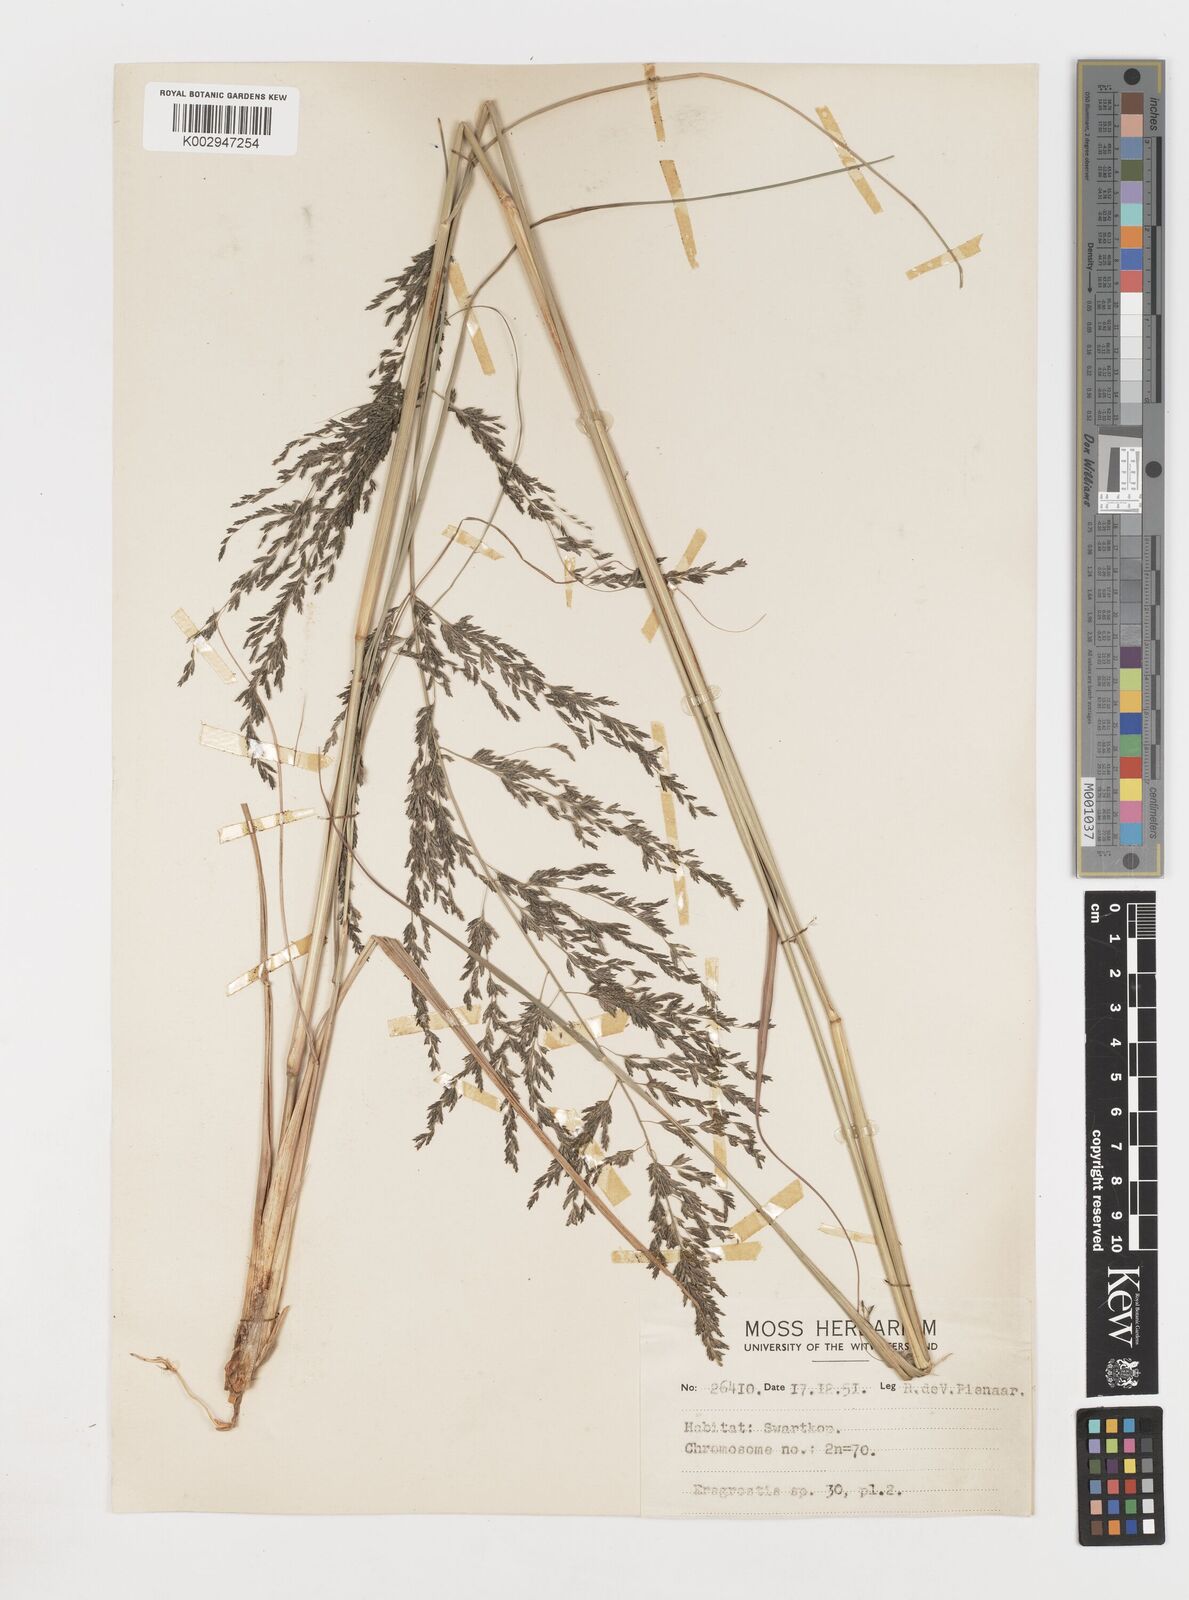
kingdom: Plantae
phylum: Tracheophyta
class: Liliopsida
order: Poales
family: Poaceae
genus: Eragrostis
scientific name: Eragrostis
